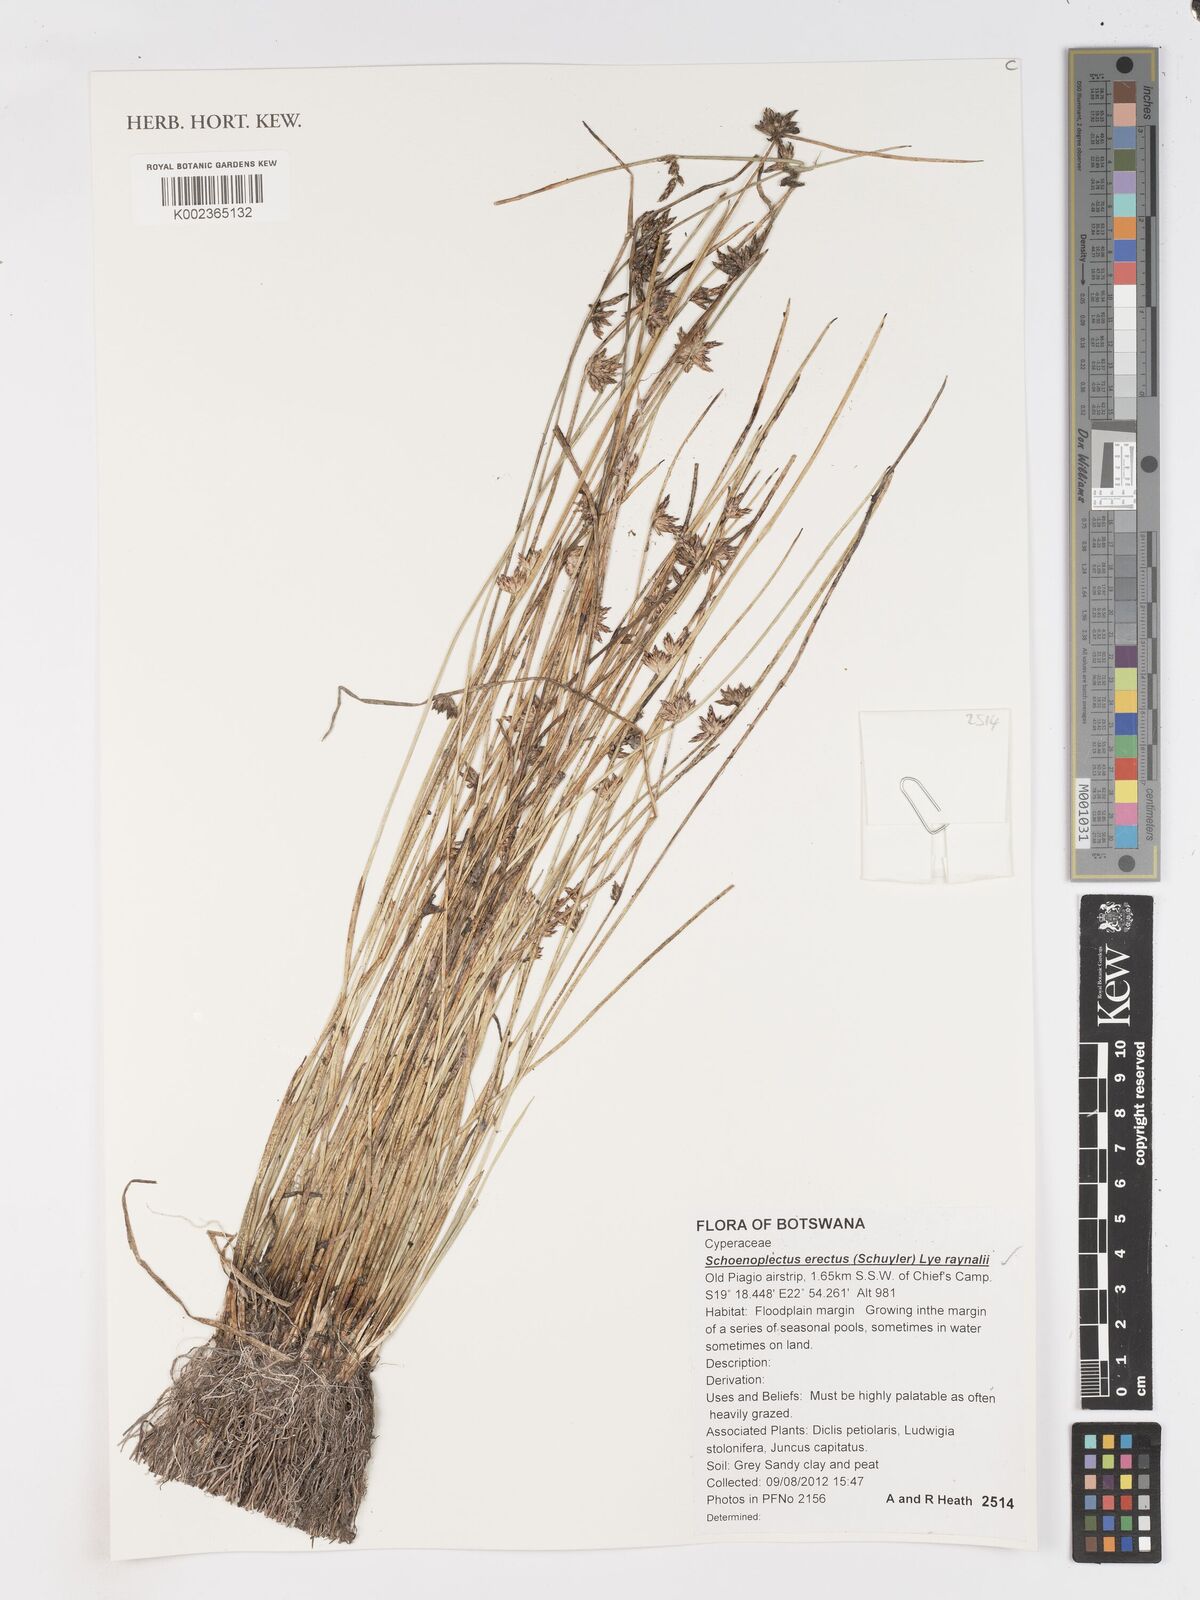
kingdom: Plantae
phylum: Tracheophyta
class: Liliopsida
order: Poales
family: Cyperaceae
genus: Schoenoplectiella
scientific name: Schoenoplectiella erecta
